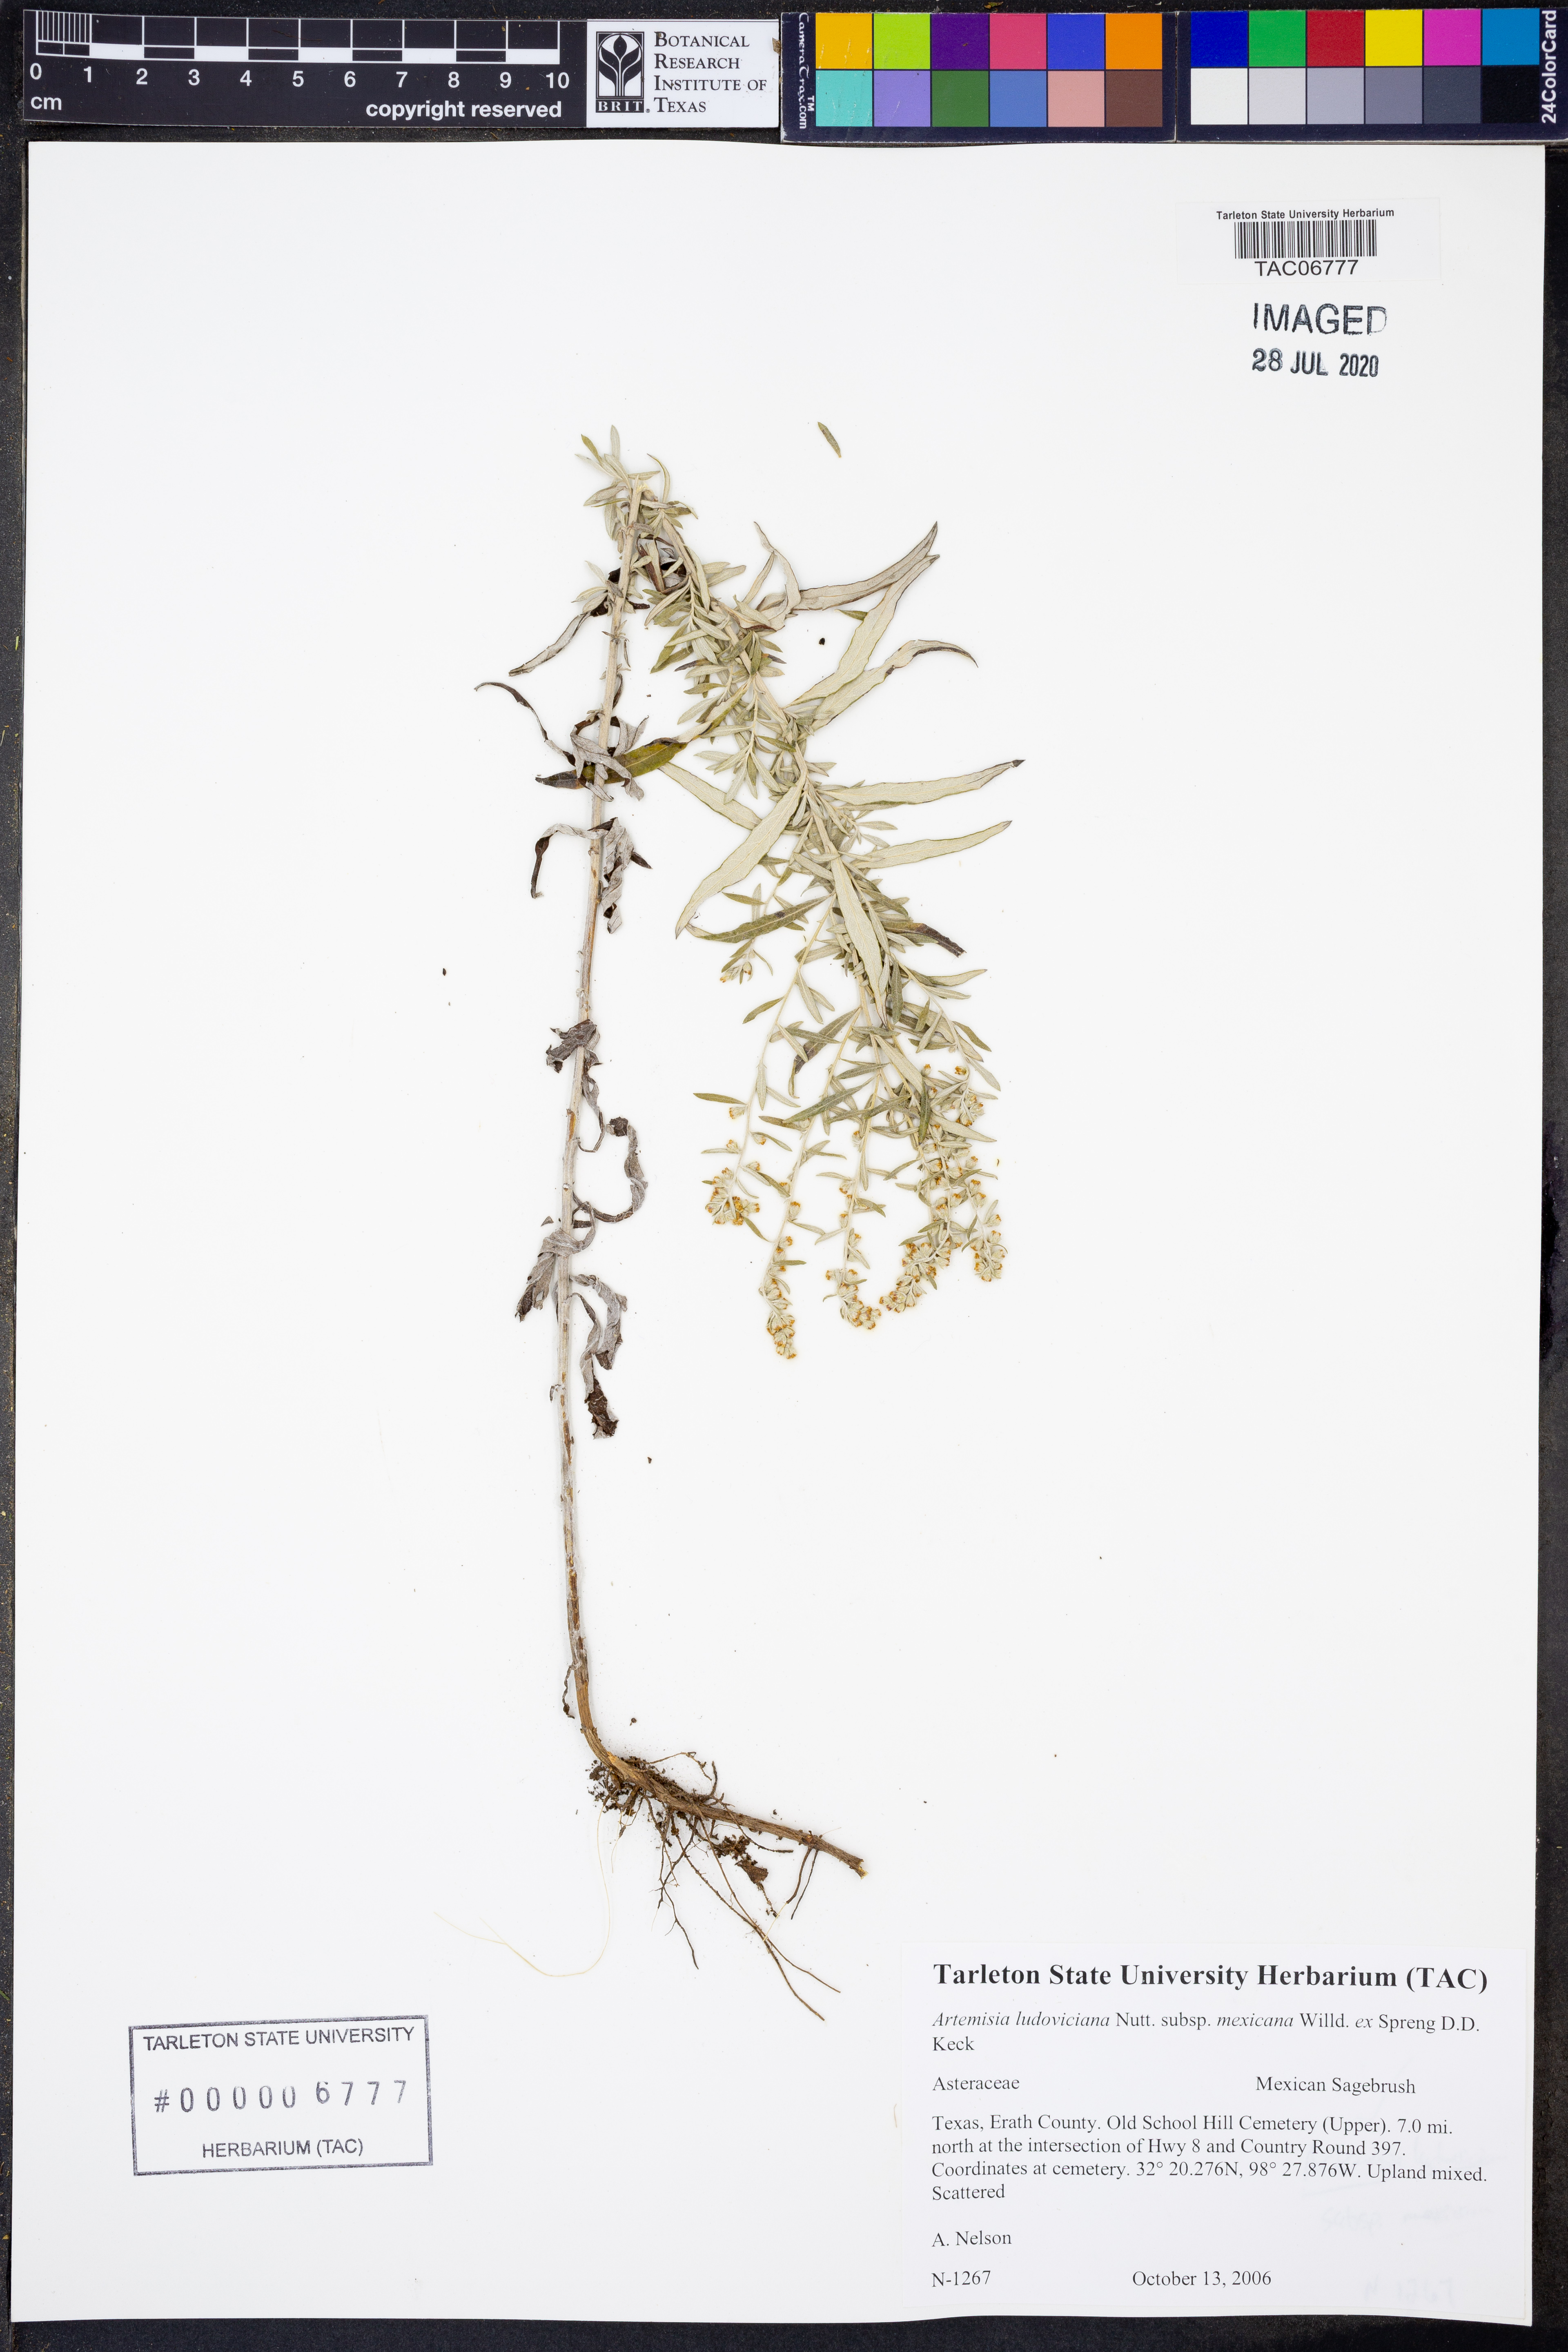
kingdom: Plantae
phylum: Tracheophyta
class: Magnoliopsida
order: Asterales
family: Asteraceae
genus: Artemisia
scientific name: Artemisia ludoviciana
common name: Western mugwort
